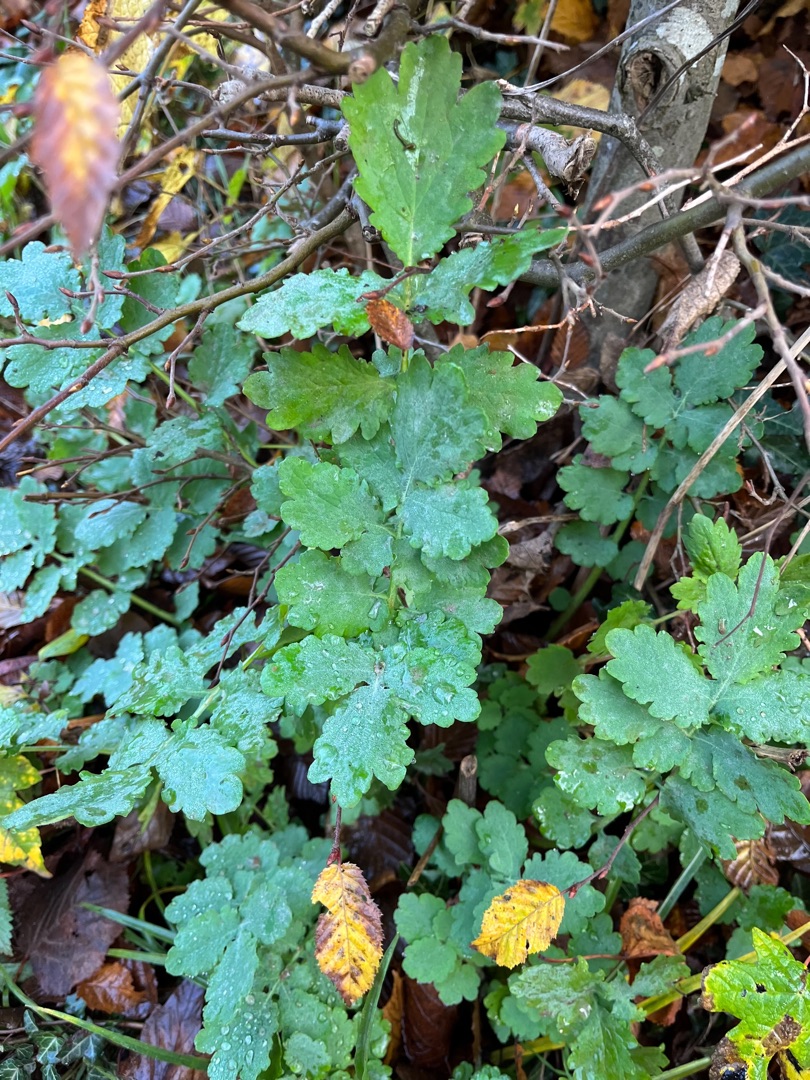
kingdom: Plantae
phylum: Tracheophyta
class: Magnoliopsida
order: Ranunculales
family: Papaveraceae
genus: Chelidonium
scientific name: Chelidonium majus
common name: Svaleurt
